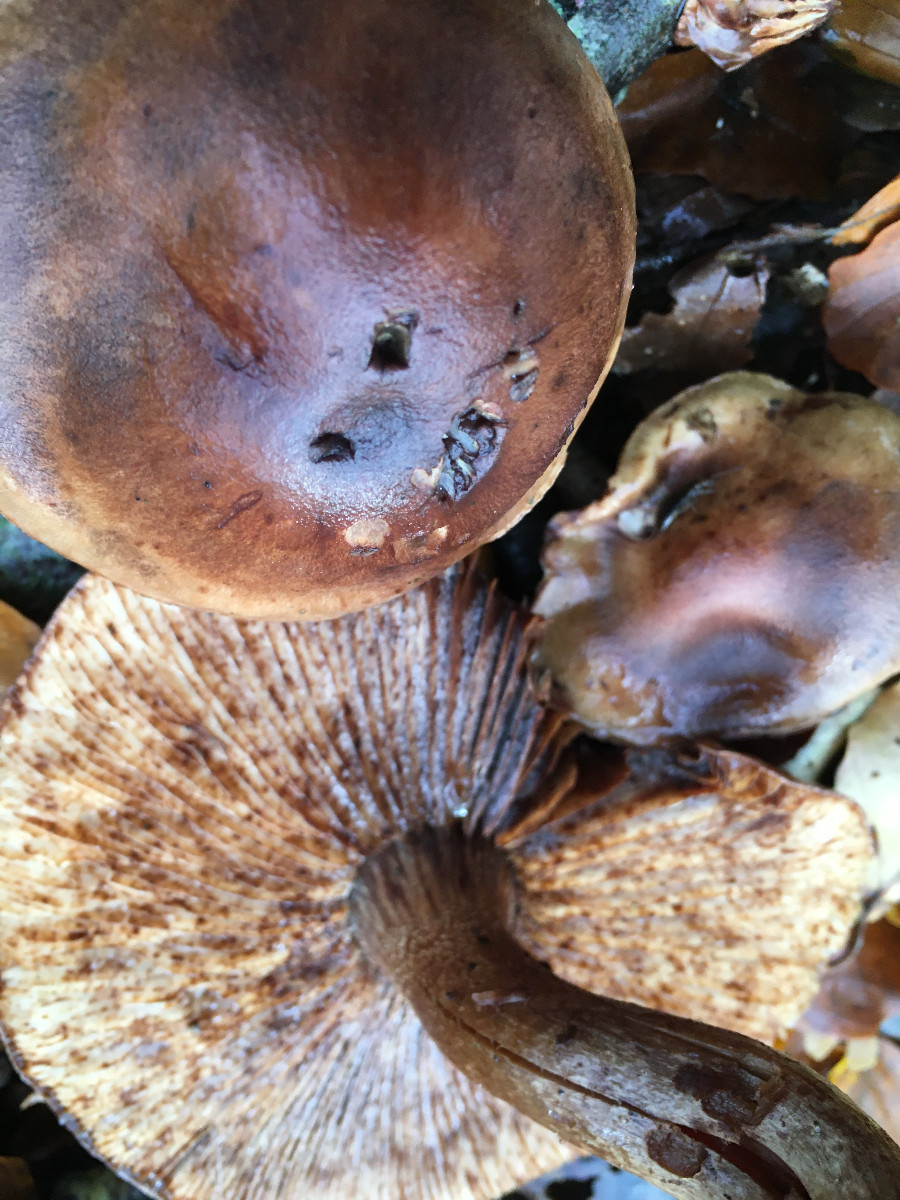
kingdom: Fungi
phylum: Basidiomycota
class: Agaricomycetes
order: Agaricales
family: Tricholomataceae
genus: Tricholoma
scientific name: Tricholoma ustale
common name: sveden ridderhat
